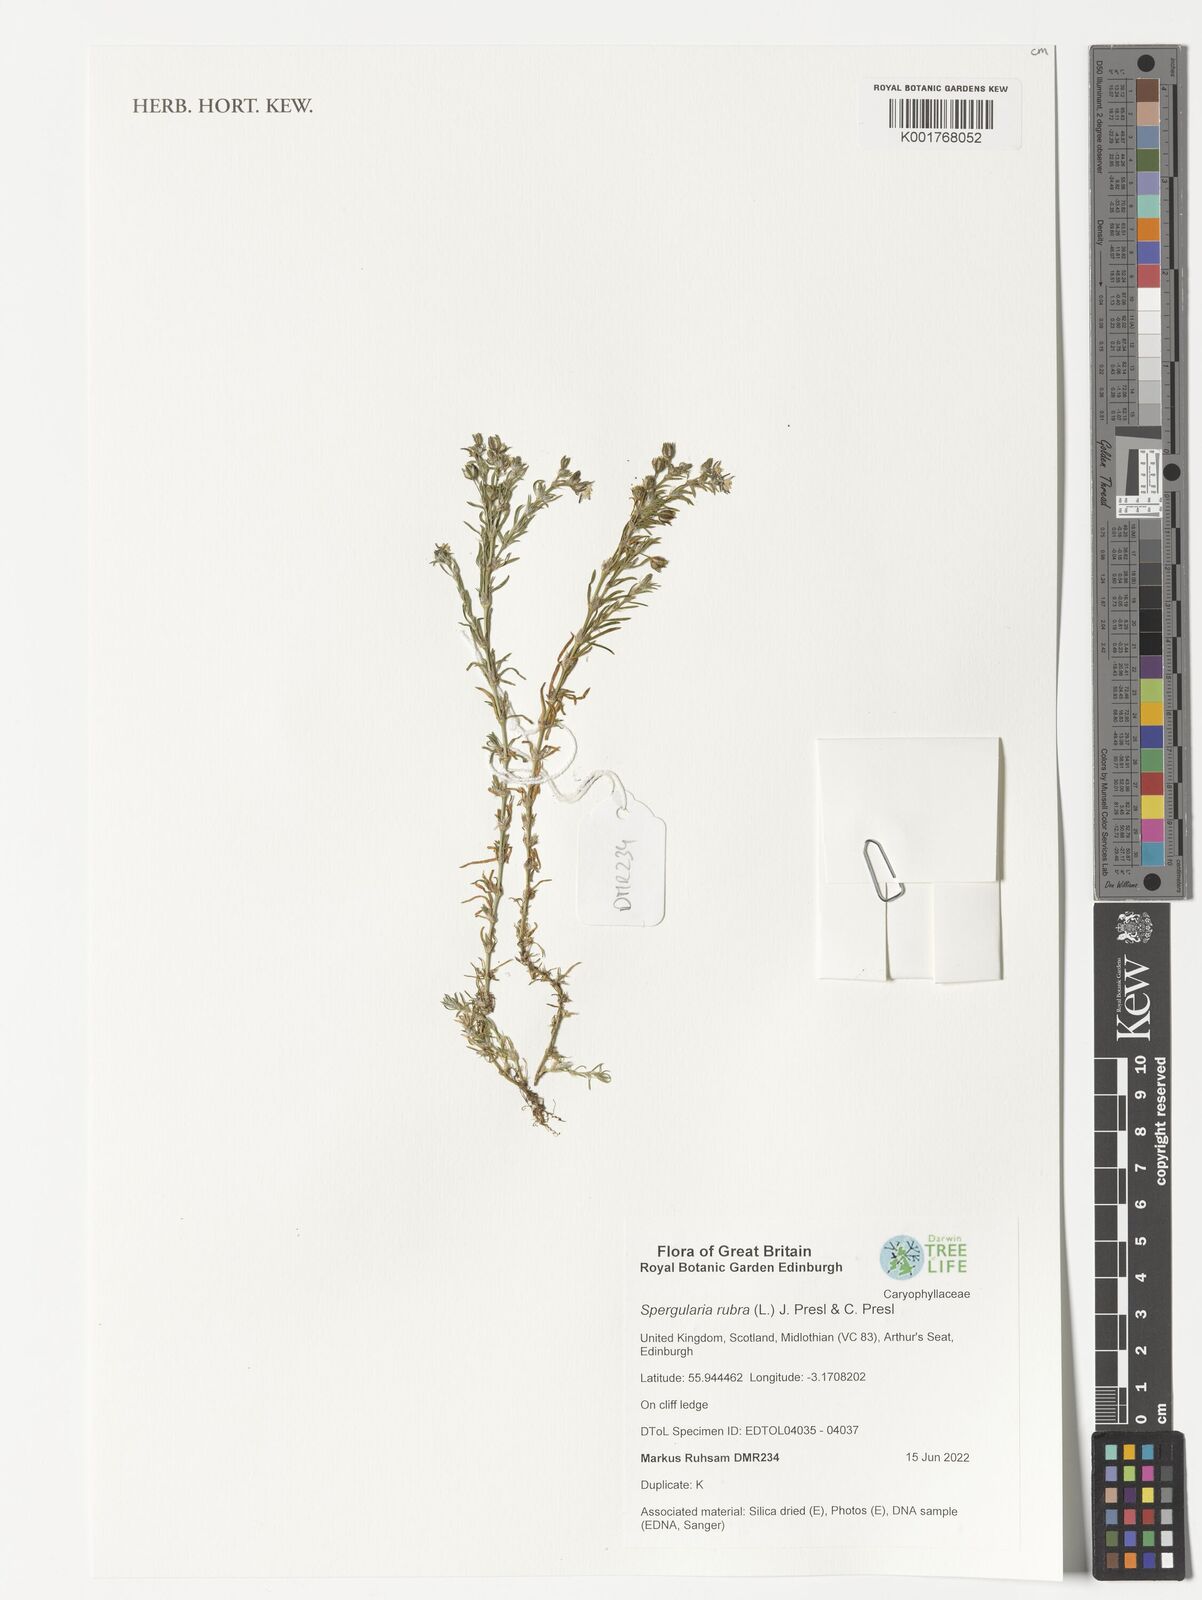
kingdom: Plantae
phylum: Tracheophyta
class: Magnoliopsida
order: Caryophyllales
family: Caryophyllaceae
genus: Spergularia
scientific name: Spergularia rubra
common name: Red sand-spurrey
